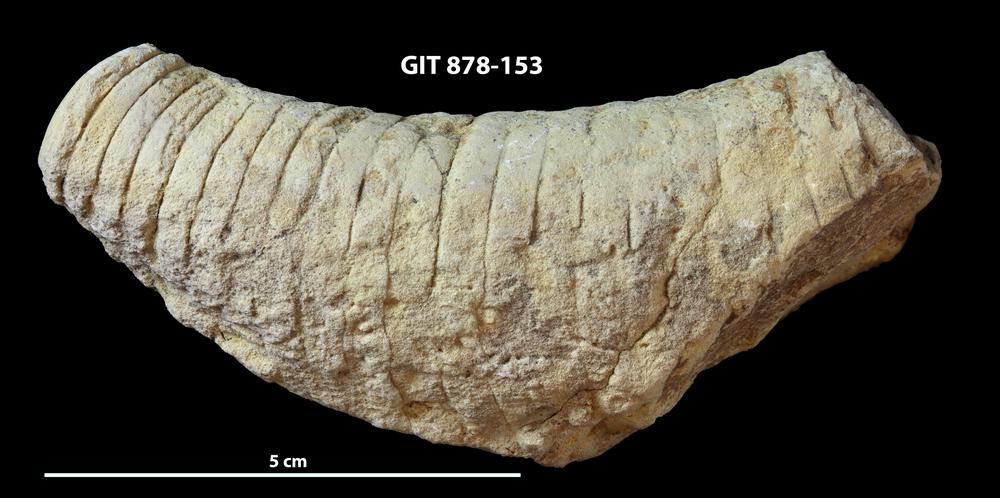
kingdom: Animalia
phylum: Mollusca
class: Cephalopoda
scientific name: Cephalopoda
